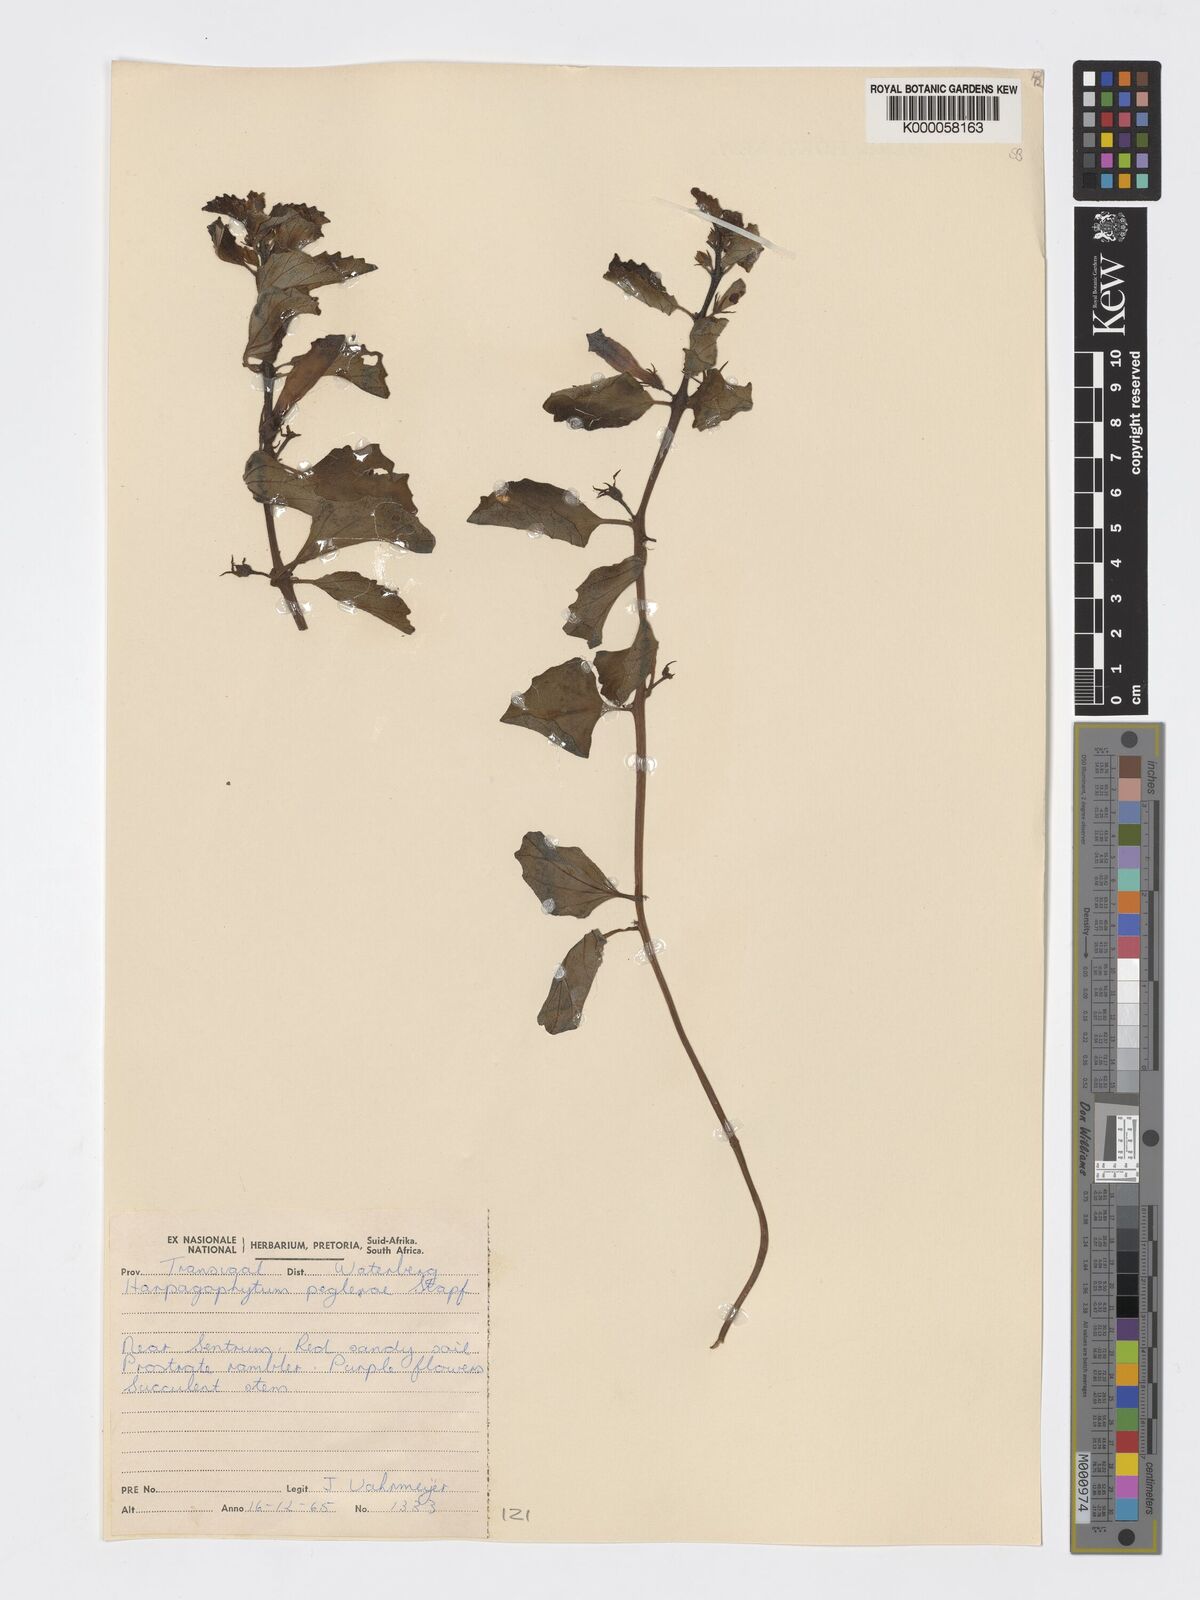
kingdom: Plantae
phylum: Tracheophyta
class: Magnoliopsida
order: Lamiales
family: Pedaliaceae
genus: Harpagophytum
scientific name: Harpagophytum zeyheri
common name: Grappleplant
